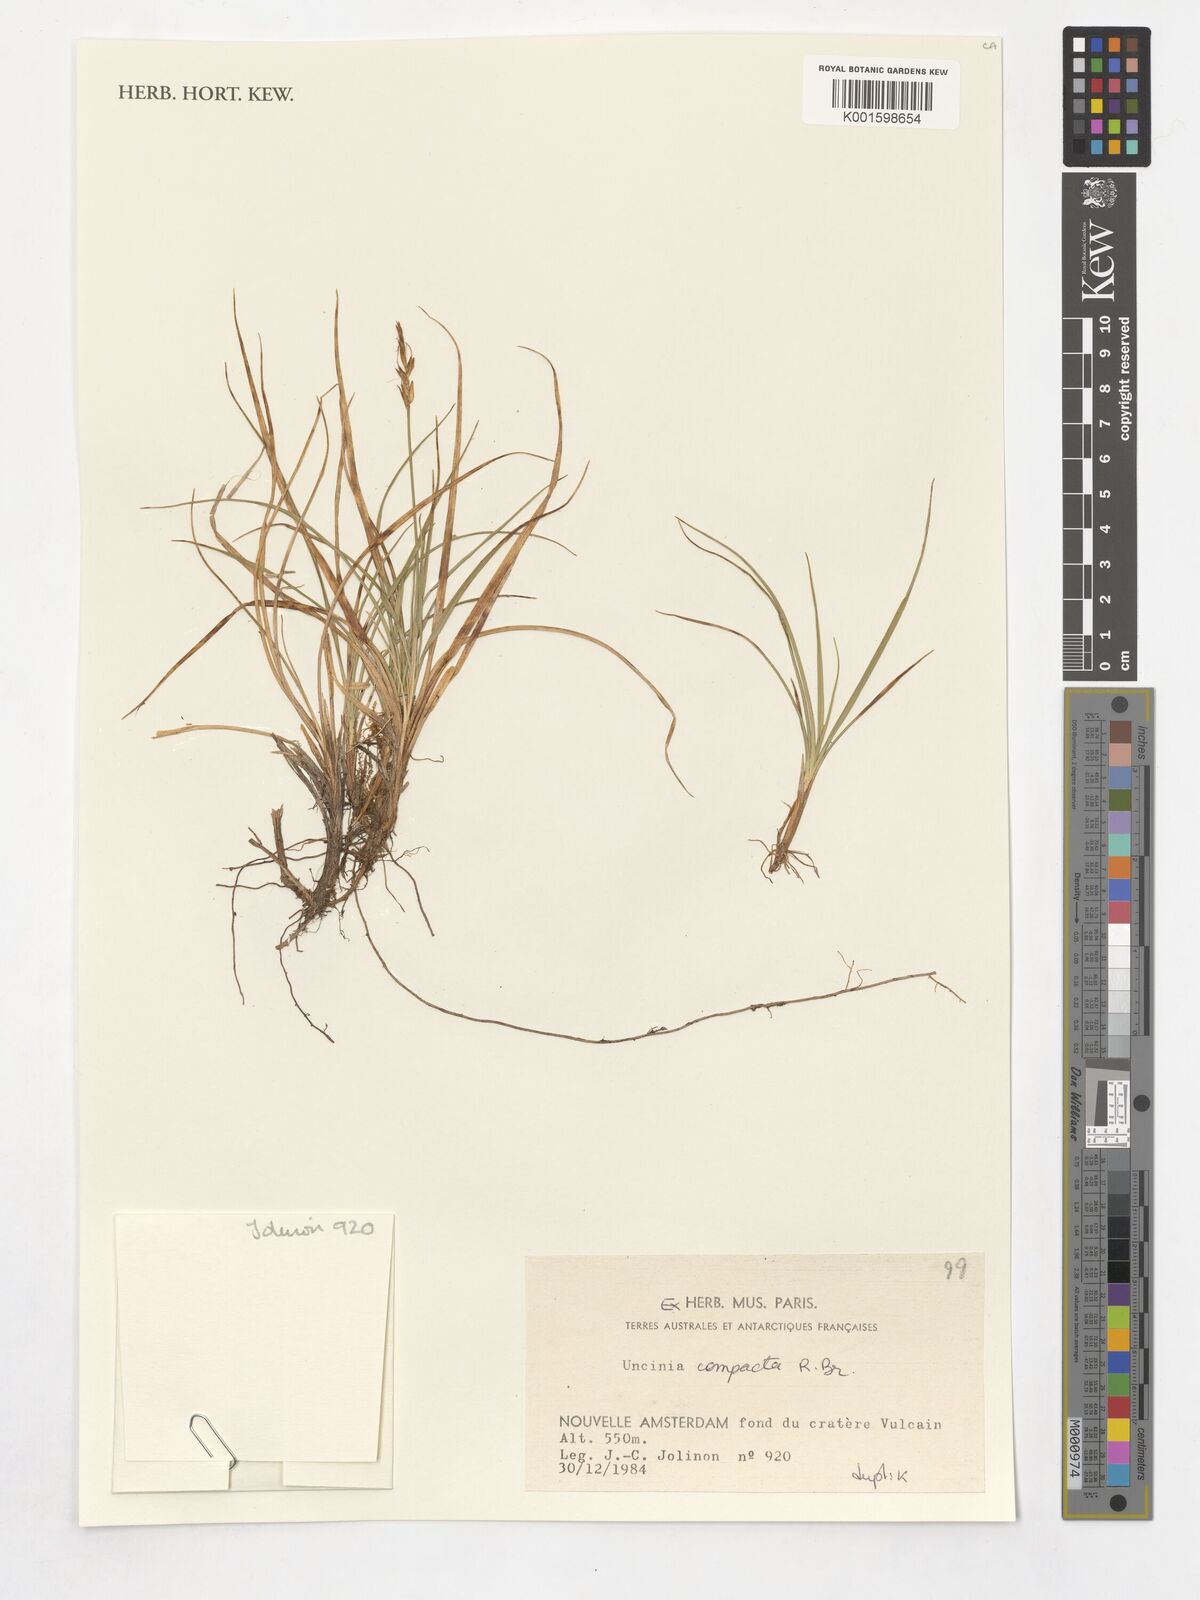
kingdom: Plantae
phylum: Tracheophyta
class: Liliopsida
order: Poales
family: Cyperaceae
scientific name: Cyperaceae
